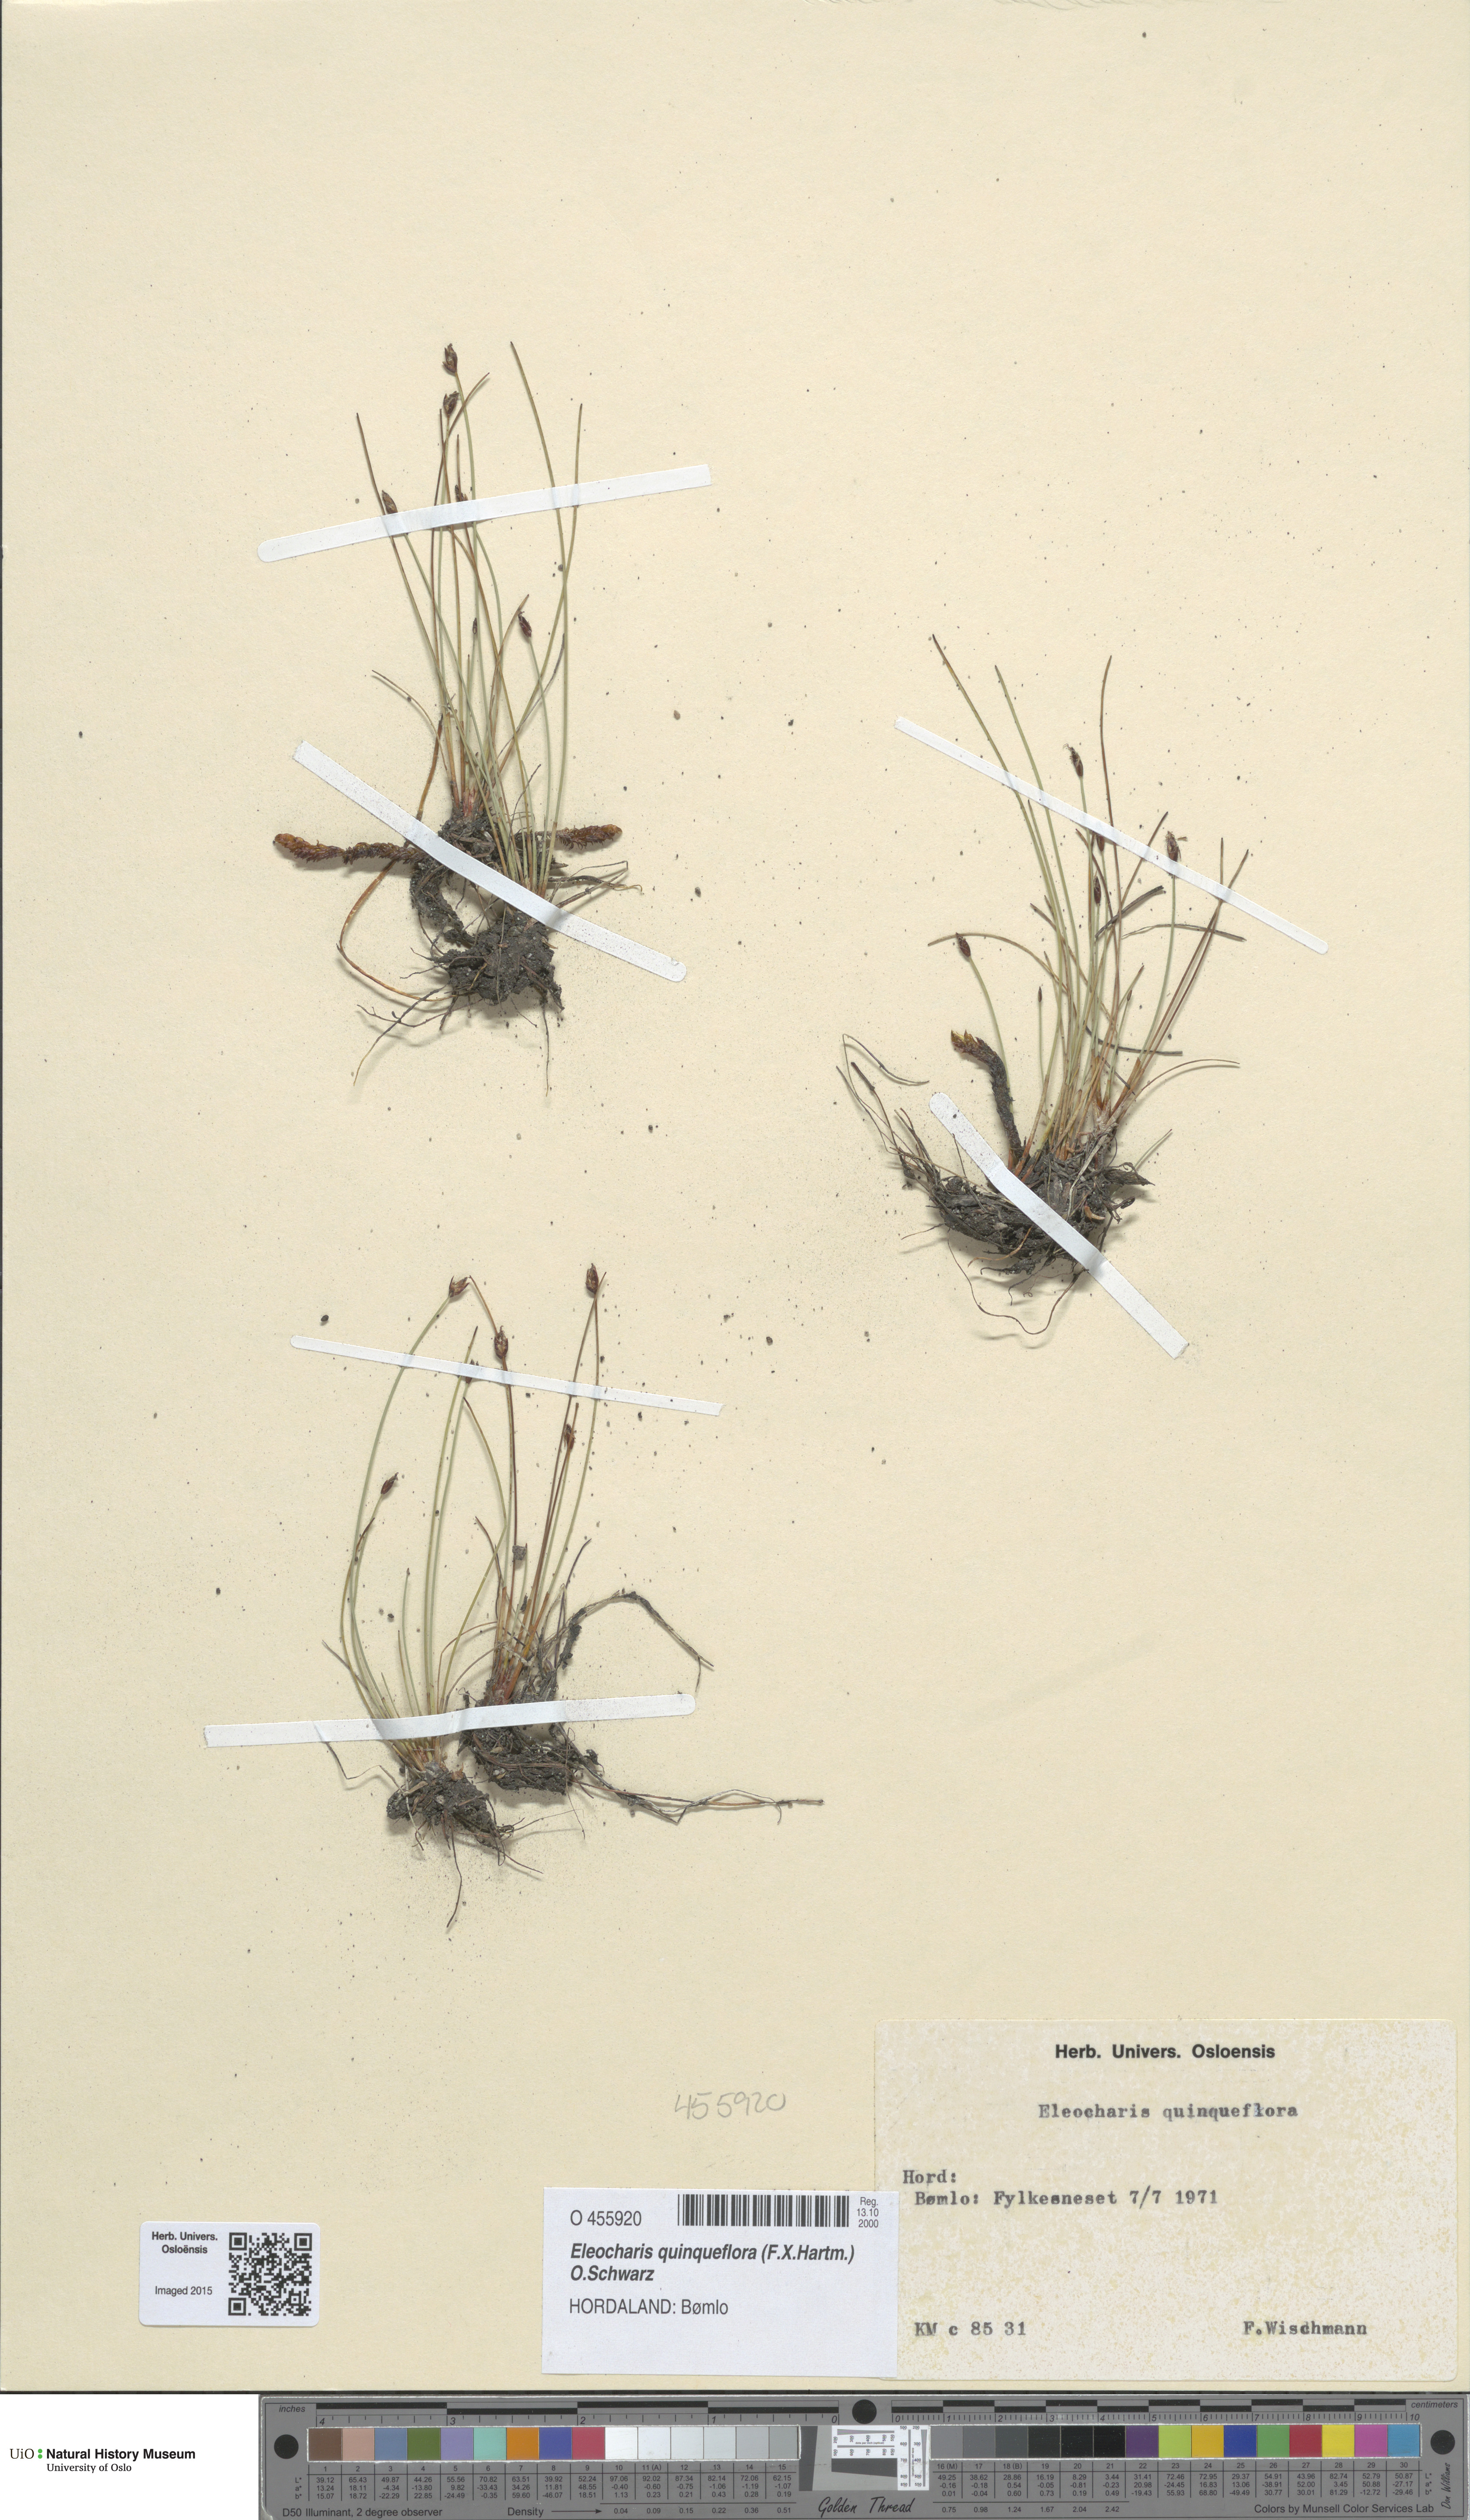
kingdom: Plantae
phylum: Tracheophyta
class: Liliopsida
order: Poales
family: Cyperaceae
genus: Eleocharis
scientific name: Eleocharis quinqueflora
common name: Few-flowered spike-rush
